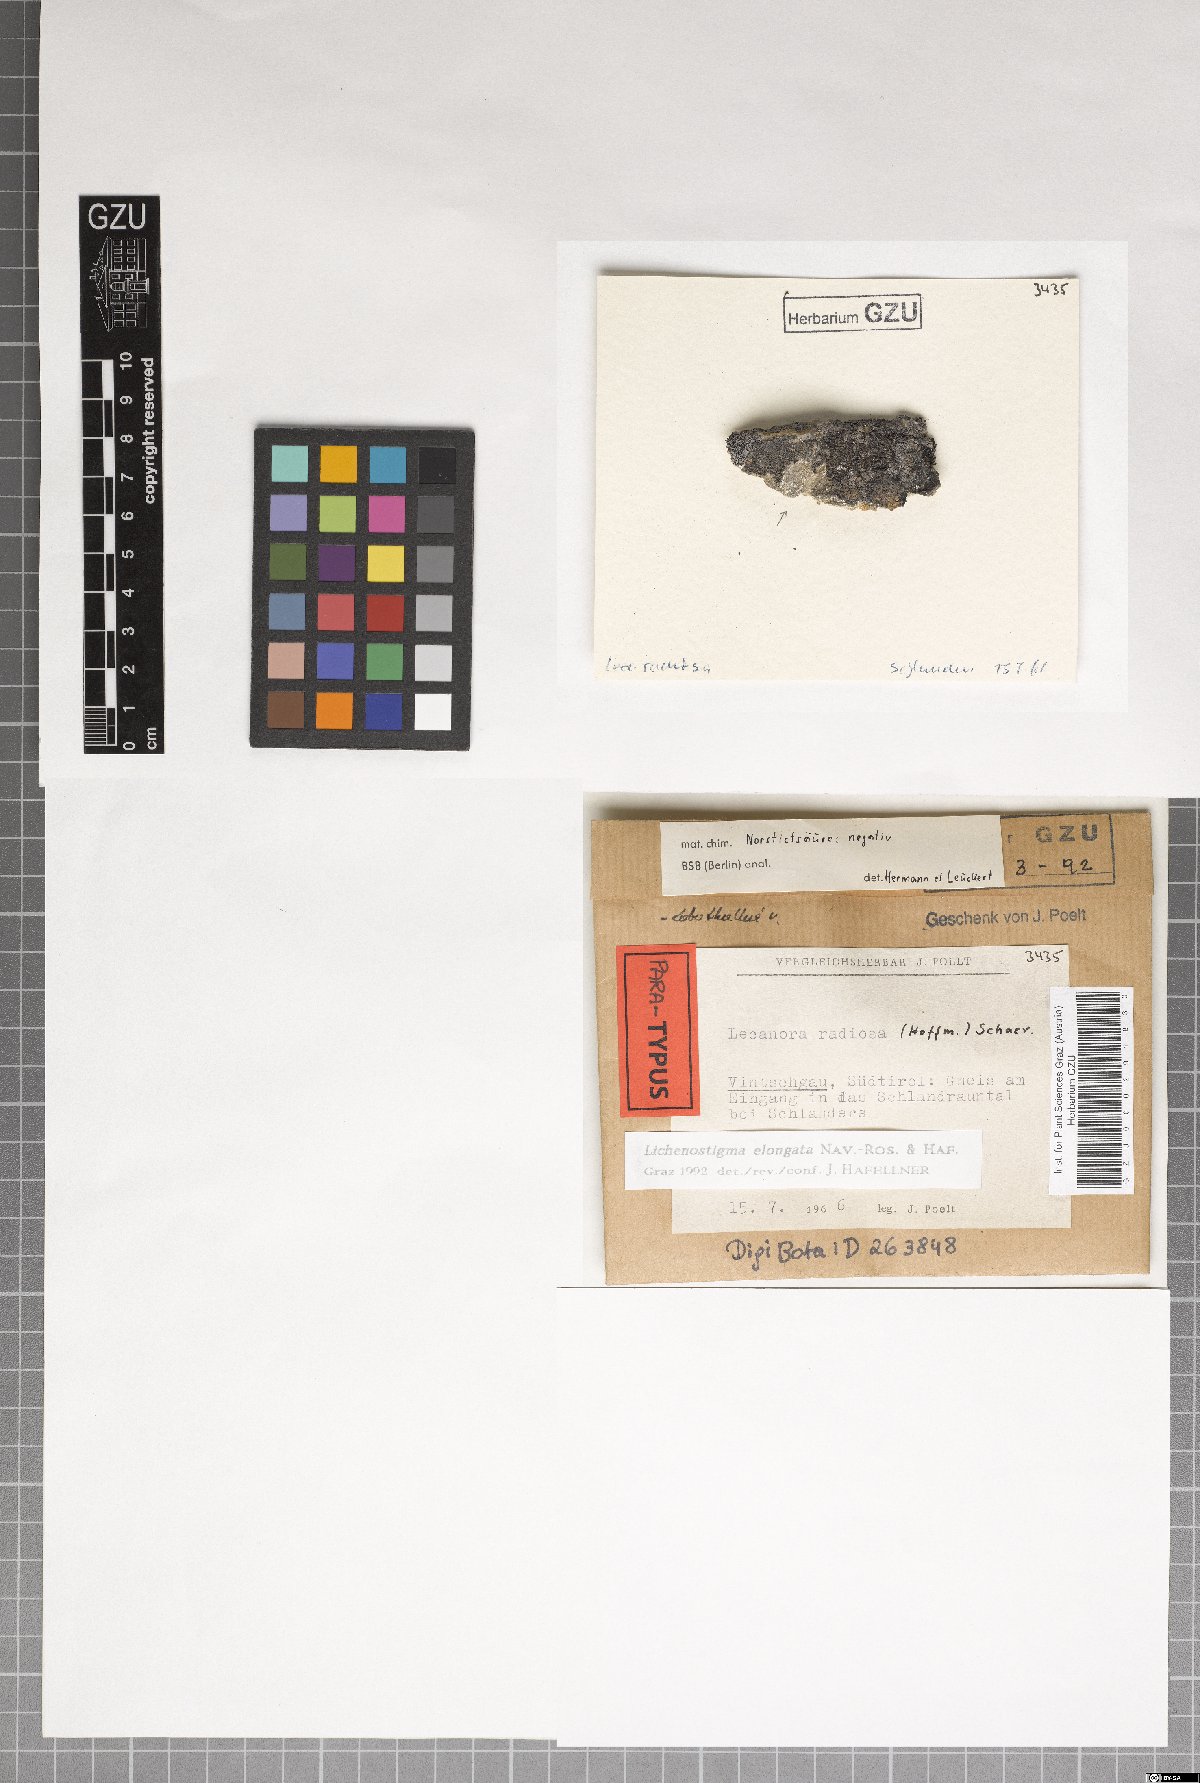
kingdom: Fungi
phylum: Ascomycota
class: Arthoniomycetes
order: Lichenostigmatales
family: Phaeococcomycetaceae
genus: Lichenostigma
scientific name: Lichenostigma elongatum
